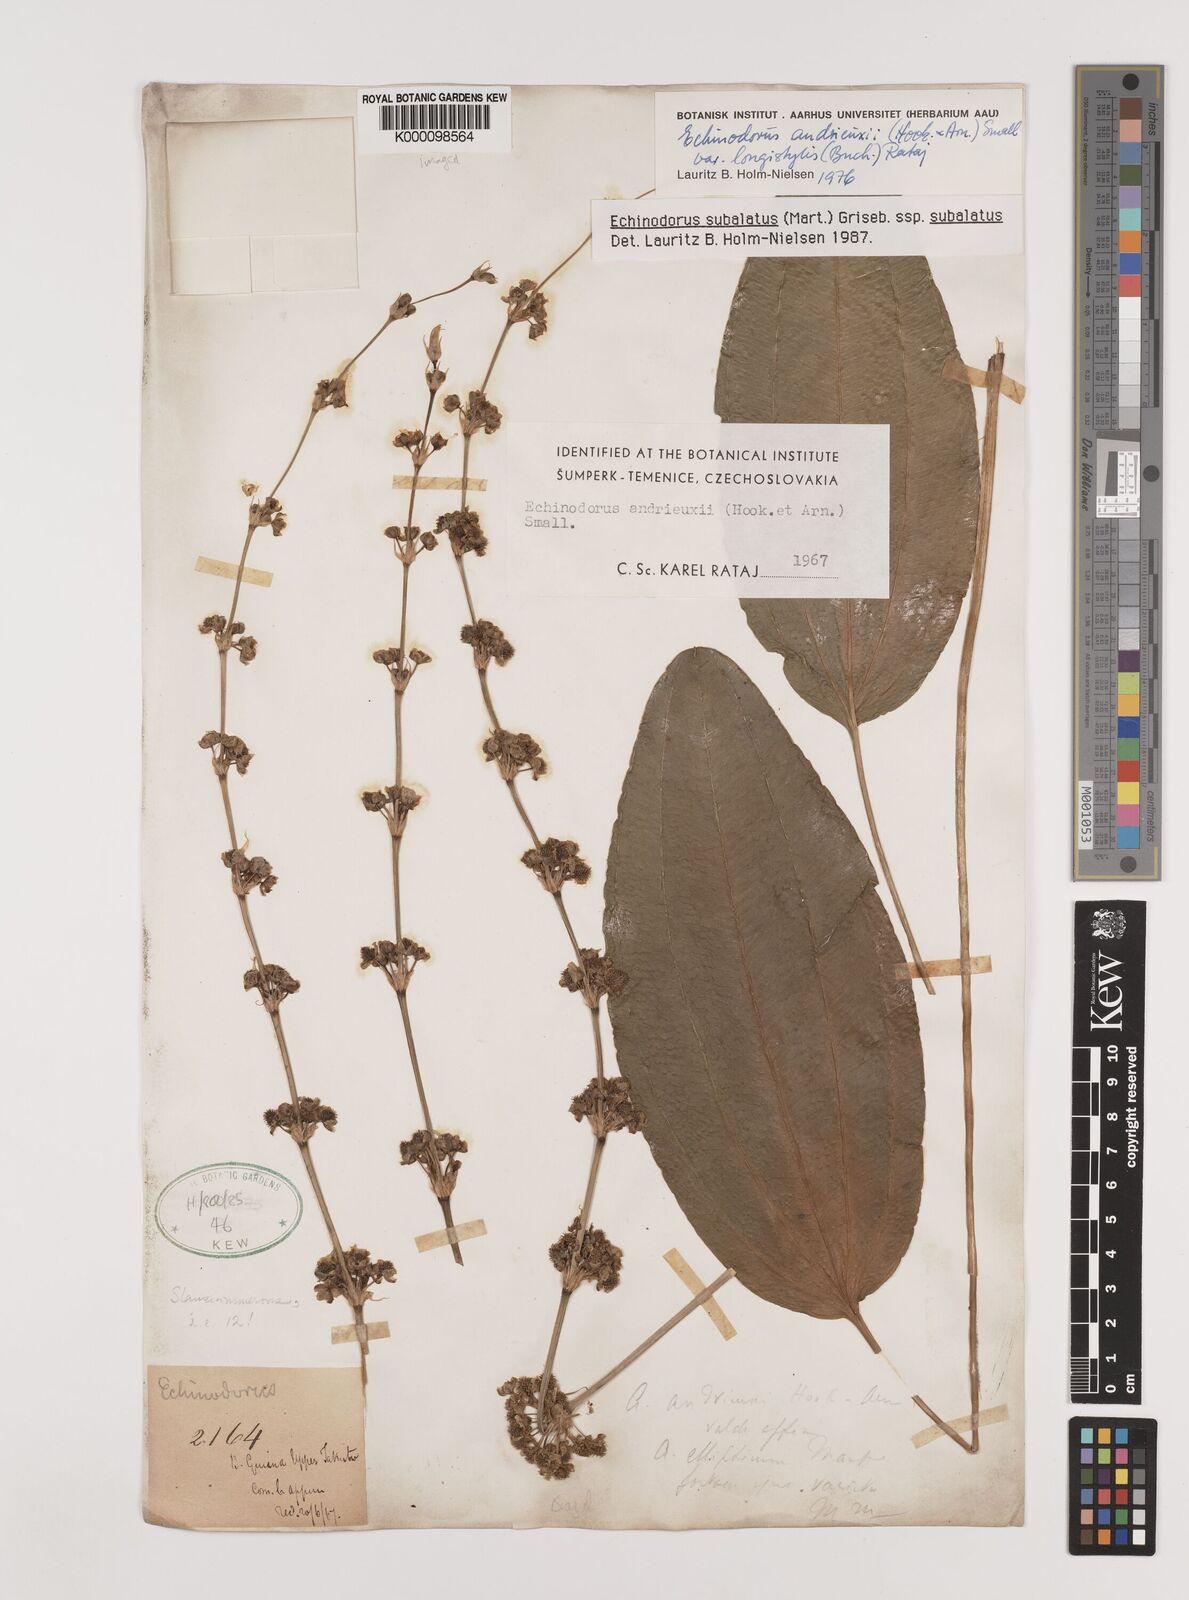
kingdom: Plantae
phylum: Tracheophyta
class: Liliopsida
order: Alismatales
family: Alismataceae
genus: Aquarius
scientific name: Aquarius subulatus
